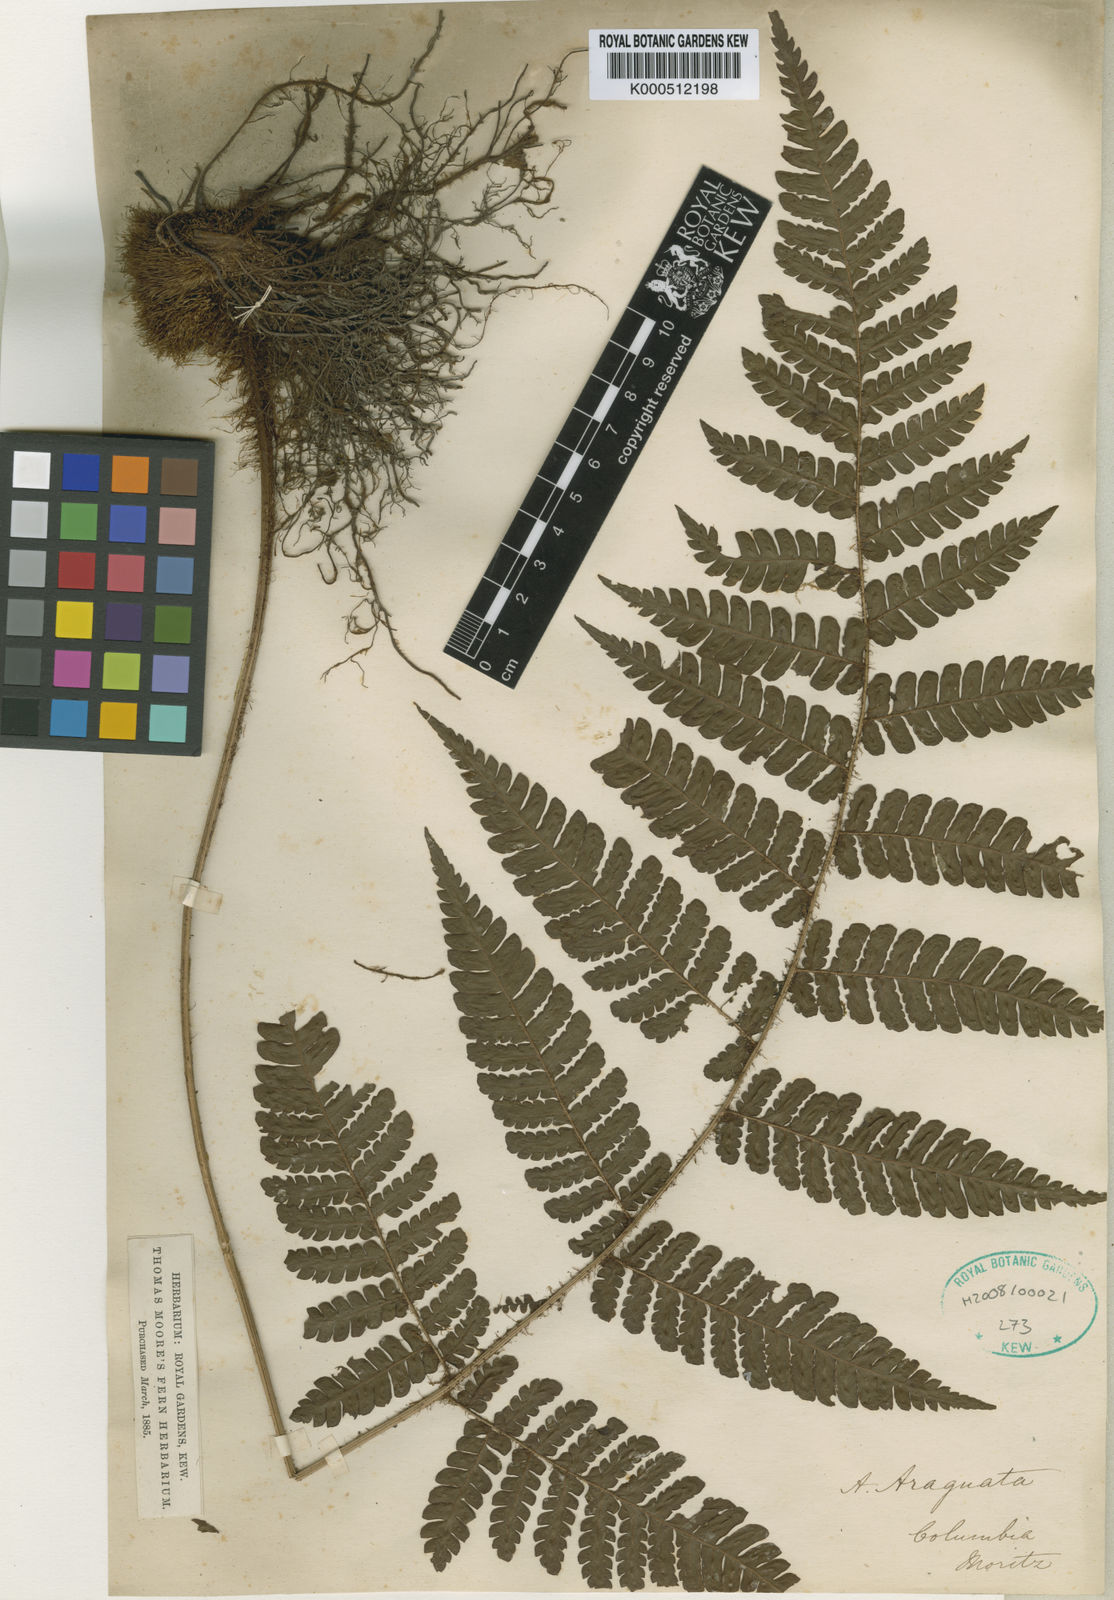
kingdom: Plantae
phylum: Tracheophyta
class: Polypodiopsida
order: Polypodiales
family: Dryopteridaceae
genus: Megalastrum
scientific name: Megalastrum subincisum
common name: Jagleaf junglefern
